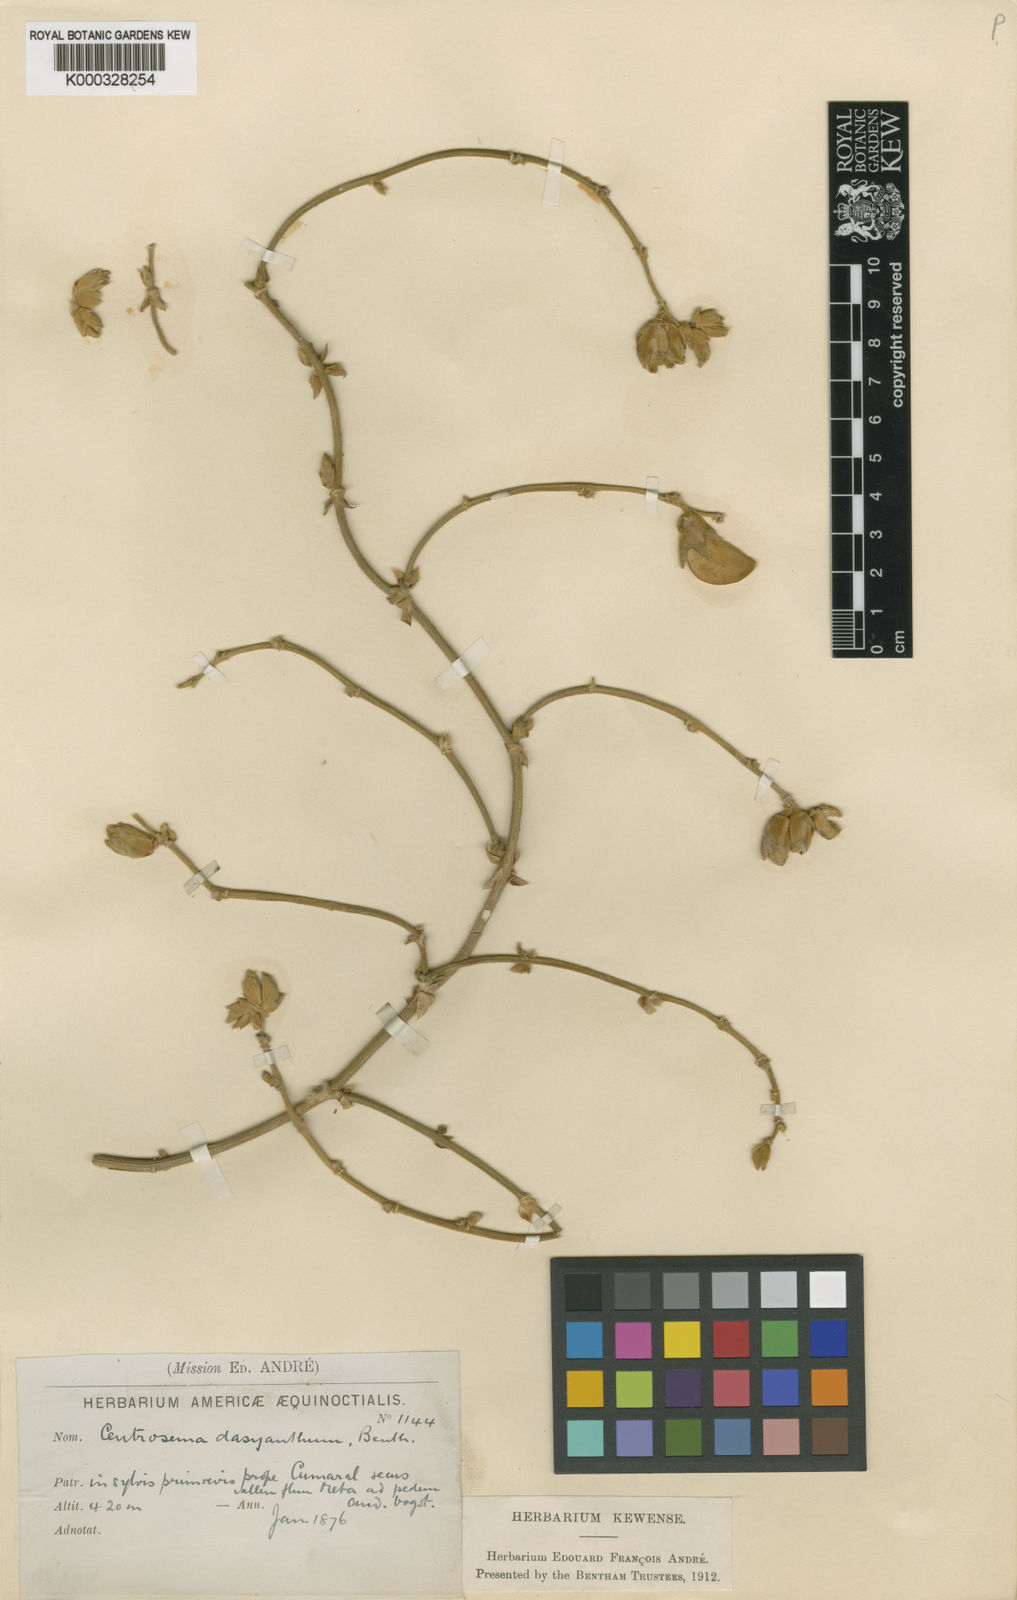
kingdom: Plantae
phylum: Tracheophyta
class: Magnoliopsida
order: Fabales
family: Fabaceae
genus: Centrosema
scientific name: Centrosema bellum
